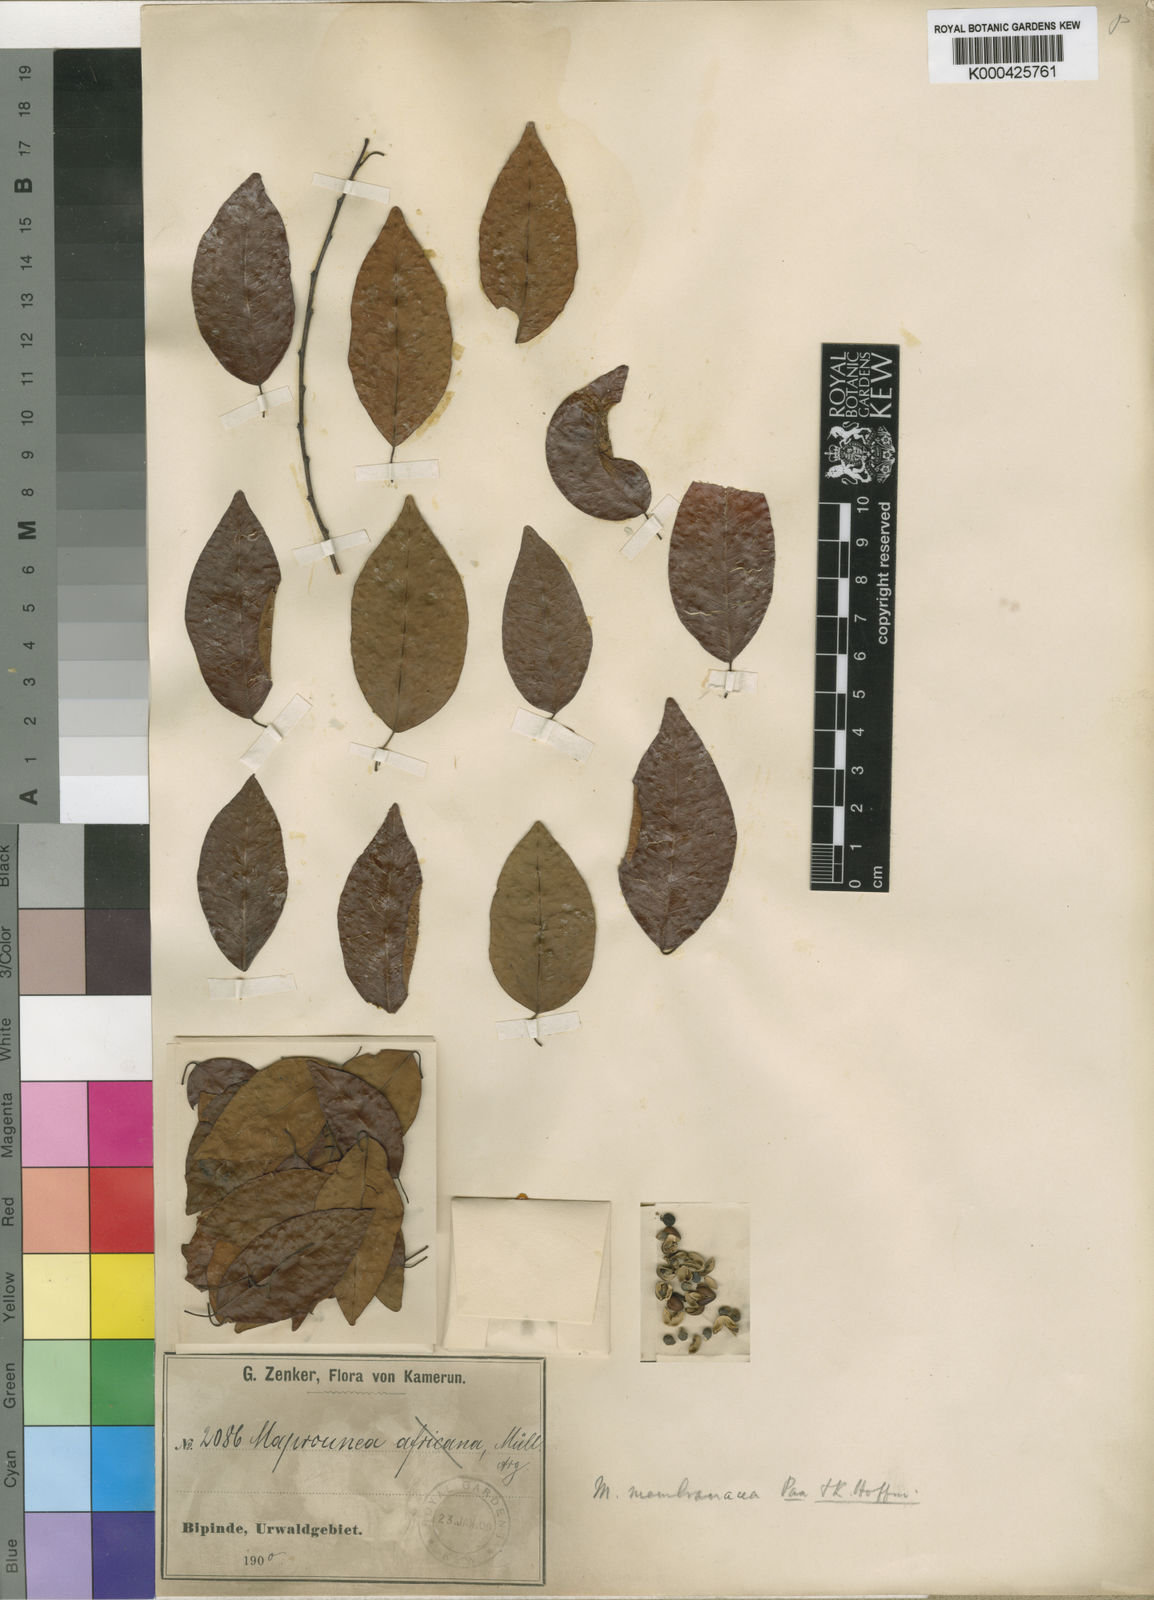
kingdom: Plantae
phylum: Tracheophyta
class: Magnoliopsida
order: Malpighiales
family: Euphorbiaceae
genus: Maprounea
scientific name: Maprounea membranacea
